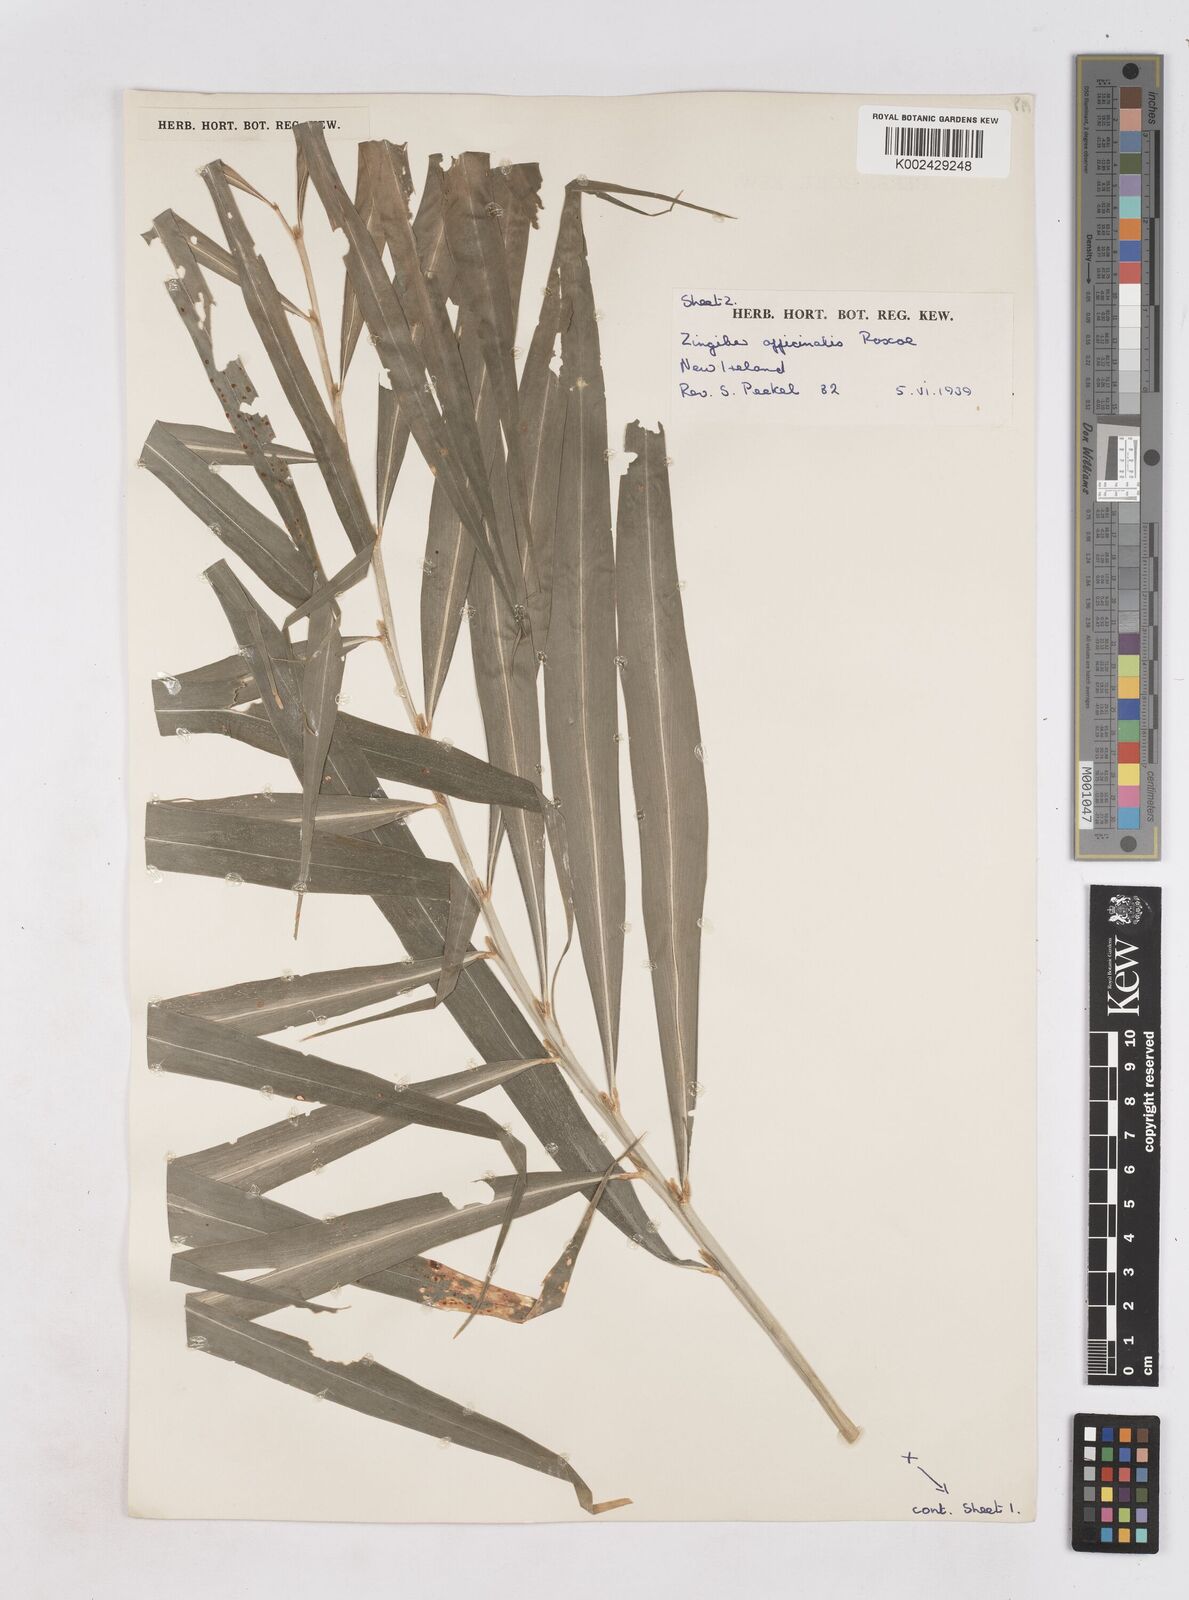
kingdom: Plantae
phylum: Tracheophyta
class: Liliopsida
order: Zingiberales
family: Zingiberaceae
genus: Zingiber
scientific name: Zingiber officinale
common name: Ginger
